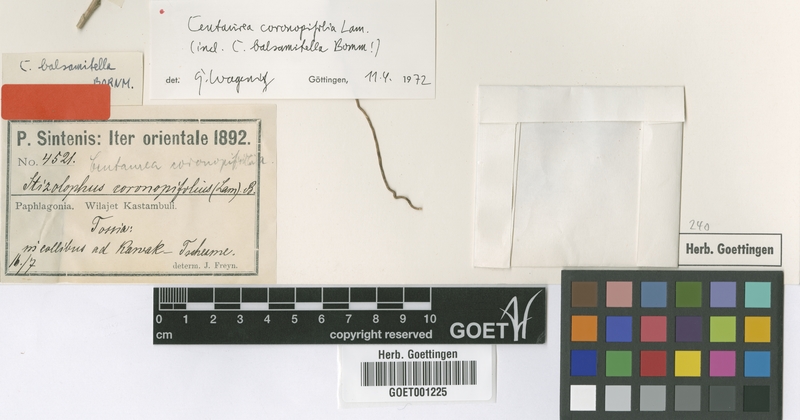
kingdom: Plantae
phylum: Tracheophyta
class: Magnoliopsida
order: Asterales
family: Asteraceae
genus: Stizolophus
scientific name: Stizolophus coronopifolius
